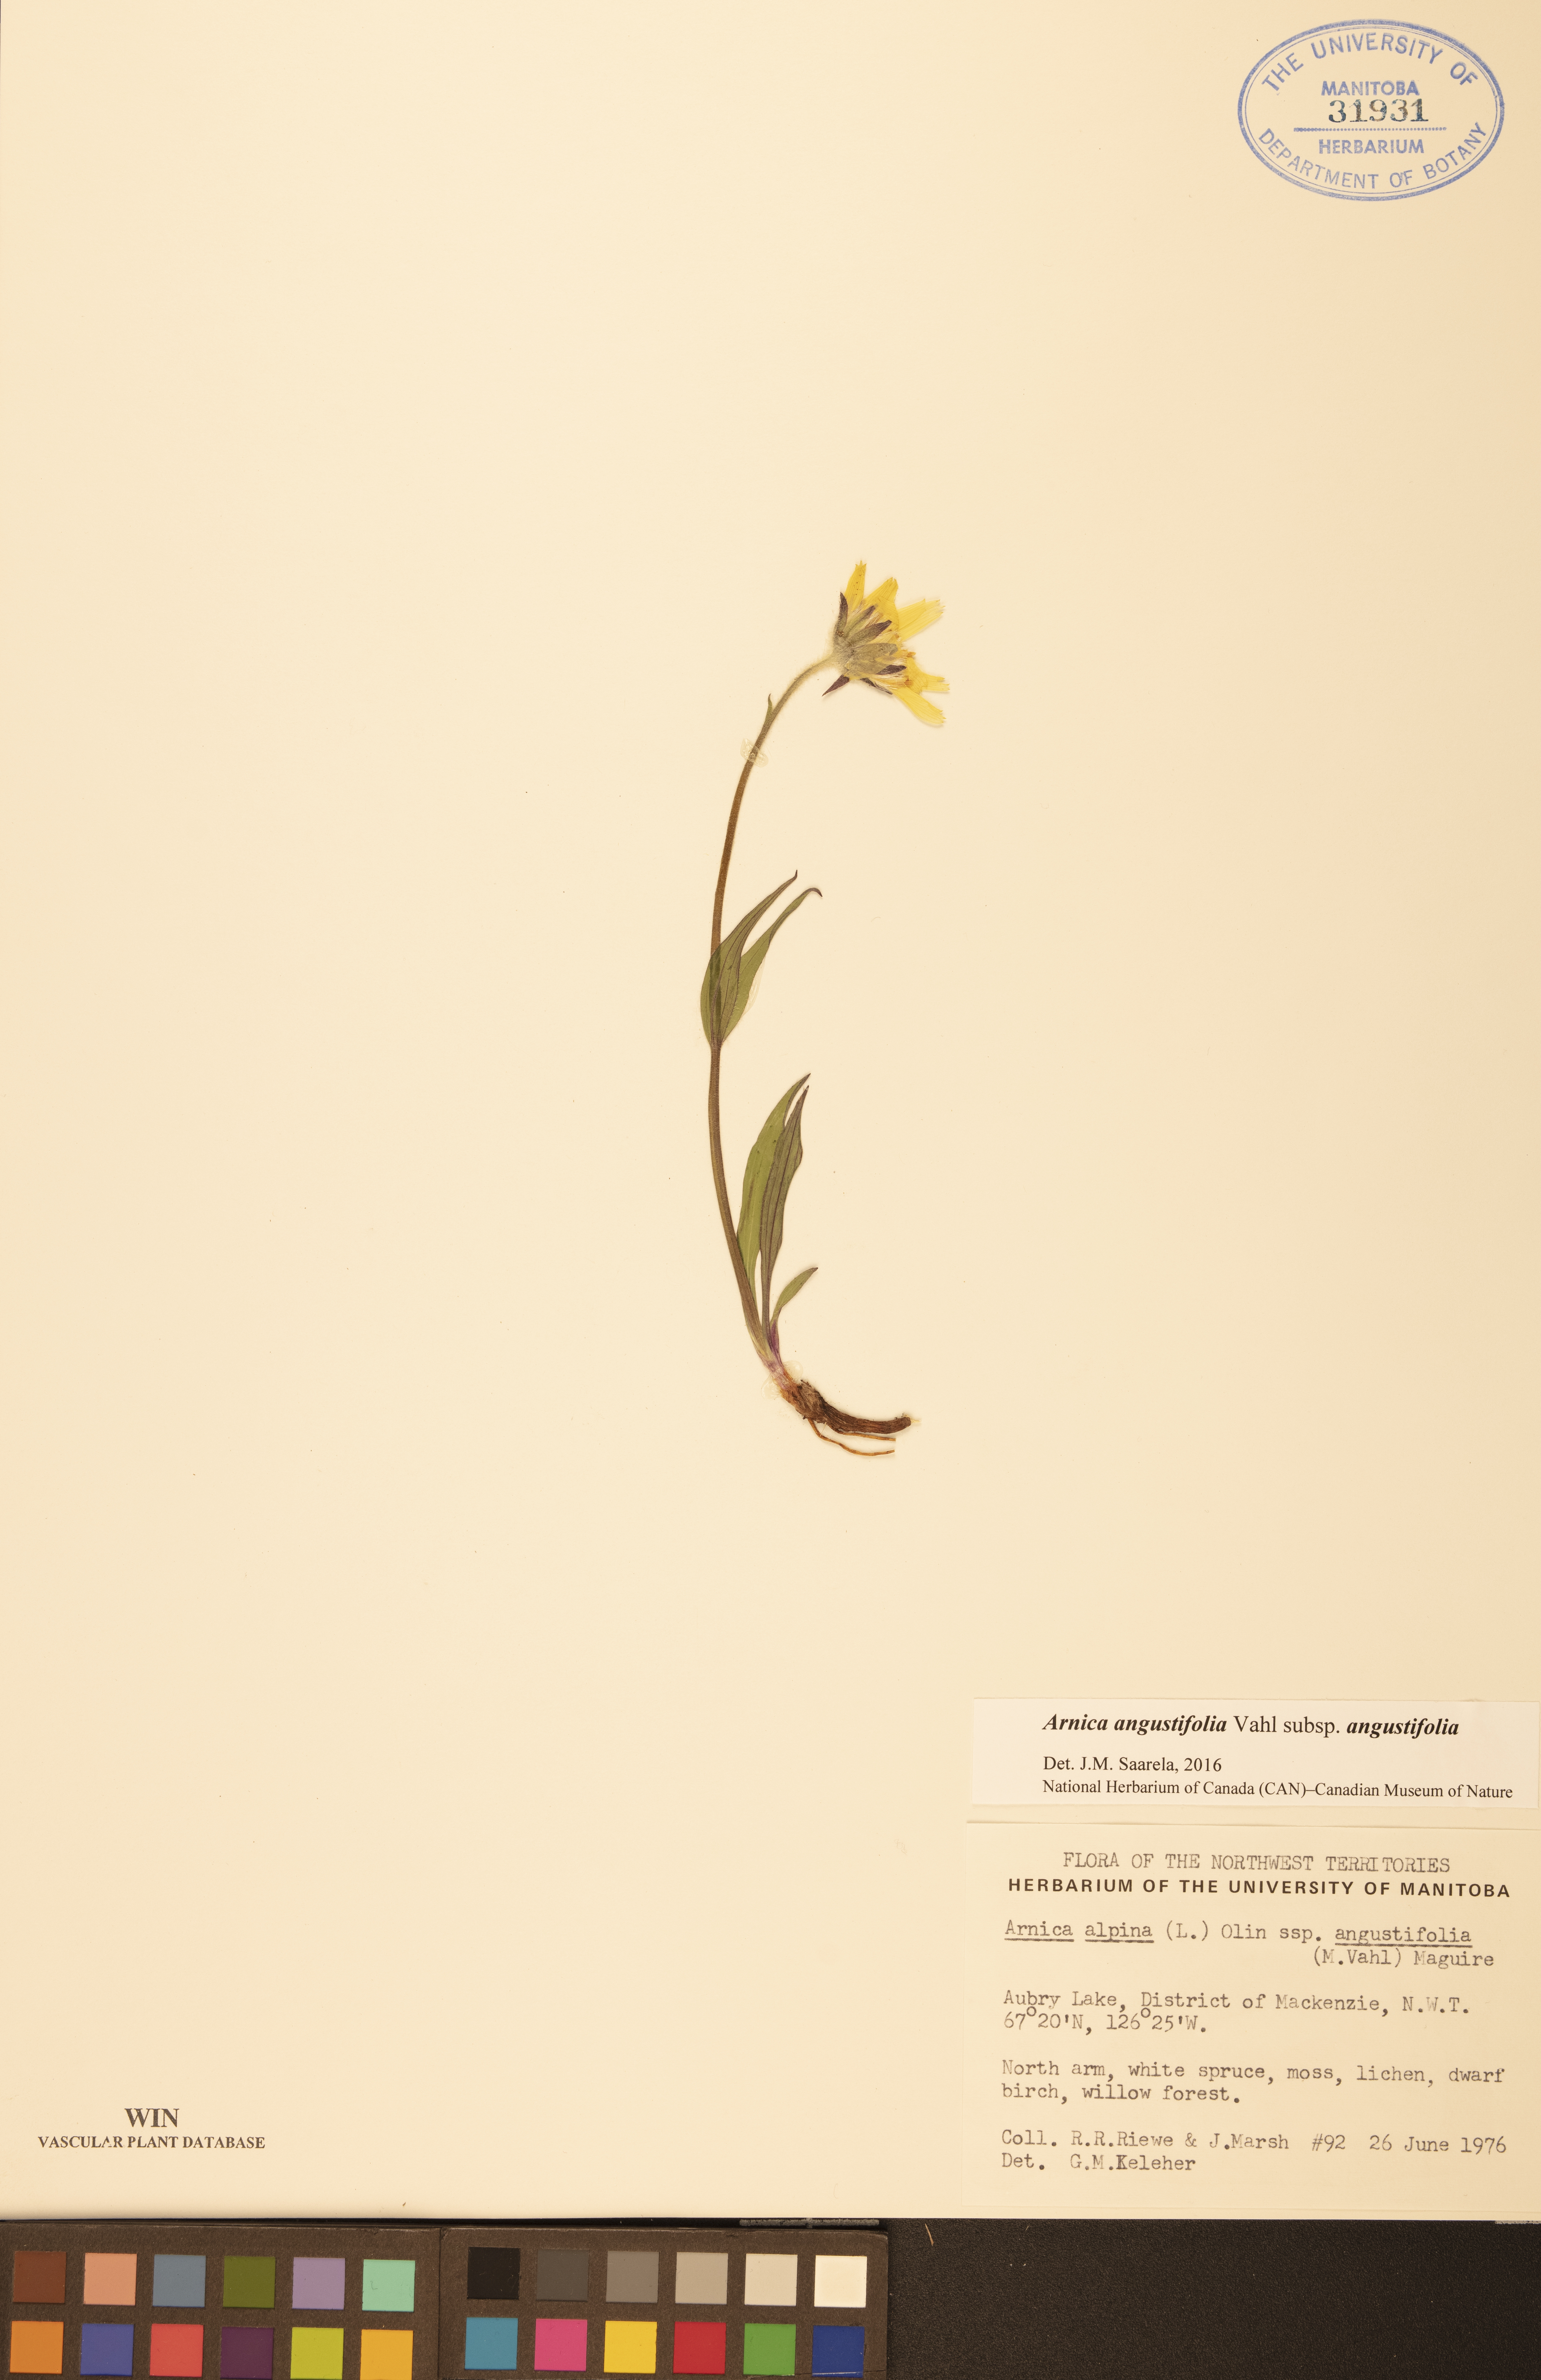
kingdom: Plantae
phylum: Tracheophyta
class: Magnoliopsida
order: Asterales
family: Asteraceae
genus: Arnica
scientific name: Arnica angustifolia
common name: Arctic arnica
